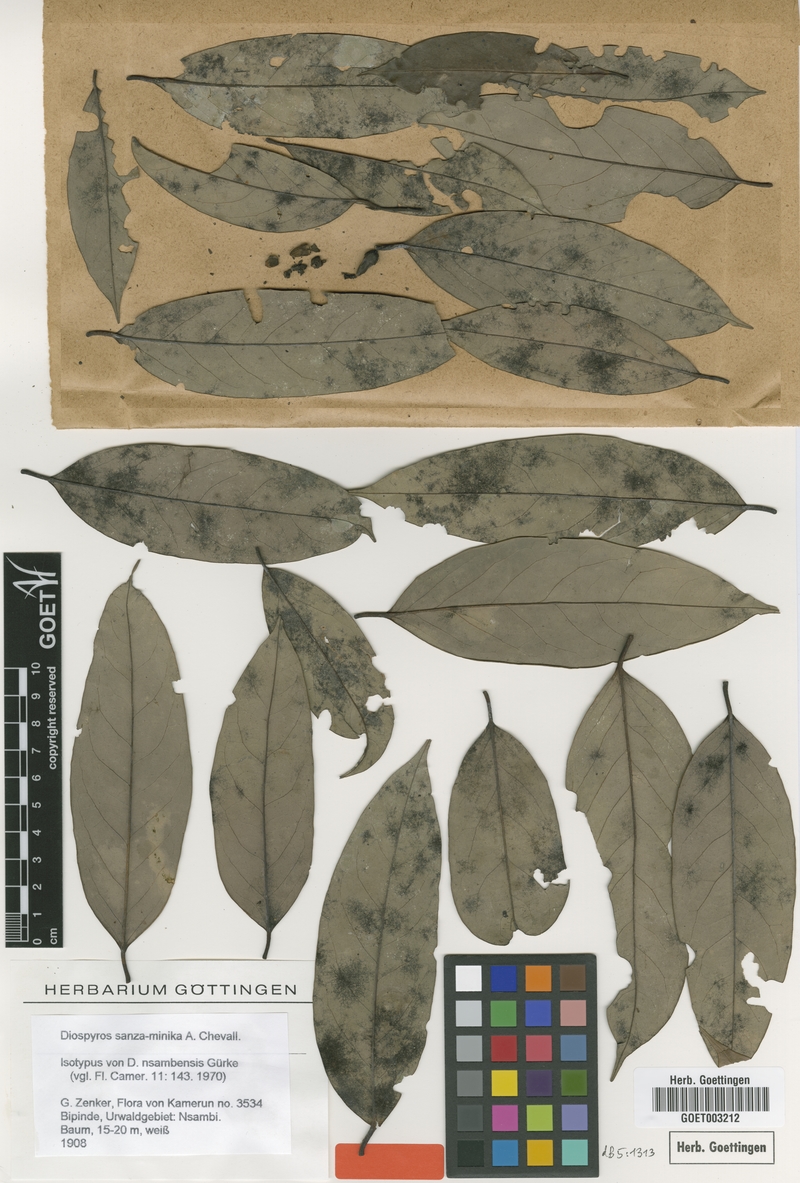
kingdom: Plantae
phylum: Tracheophyta
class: Magnoliopsida
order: Ericales
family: Ebenaceae
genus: Diospyros
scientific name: Diospyros sanza-minika
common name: Flint bark
